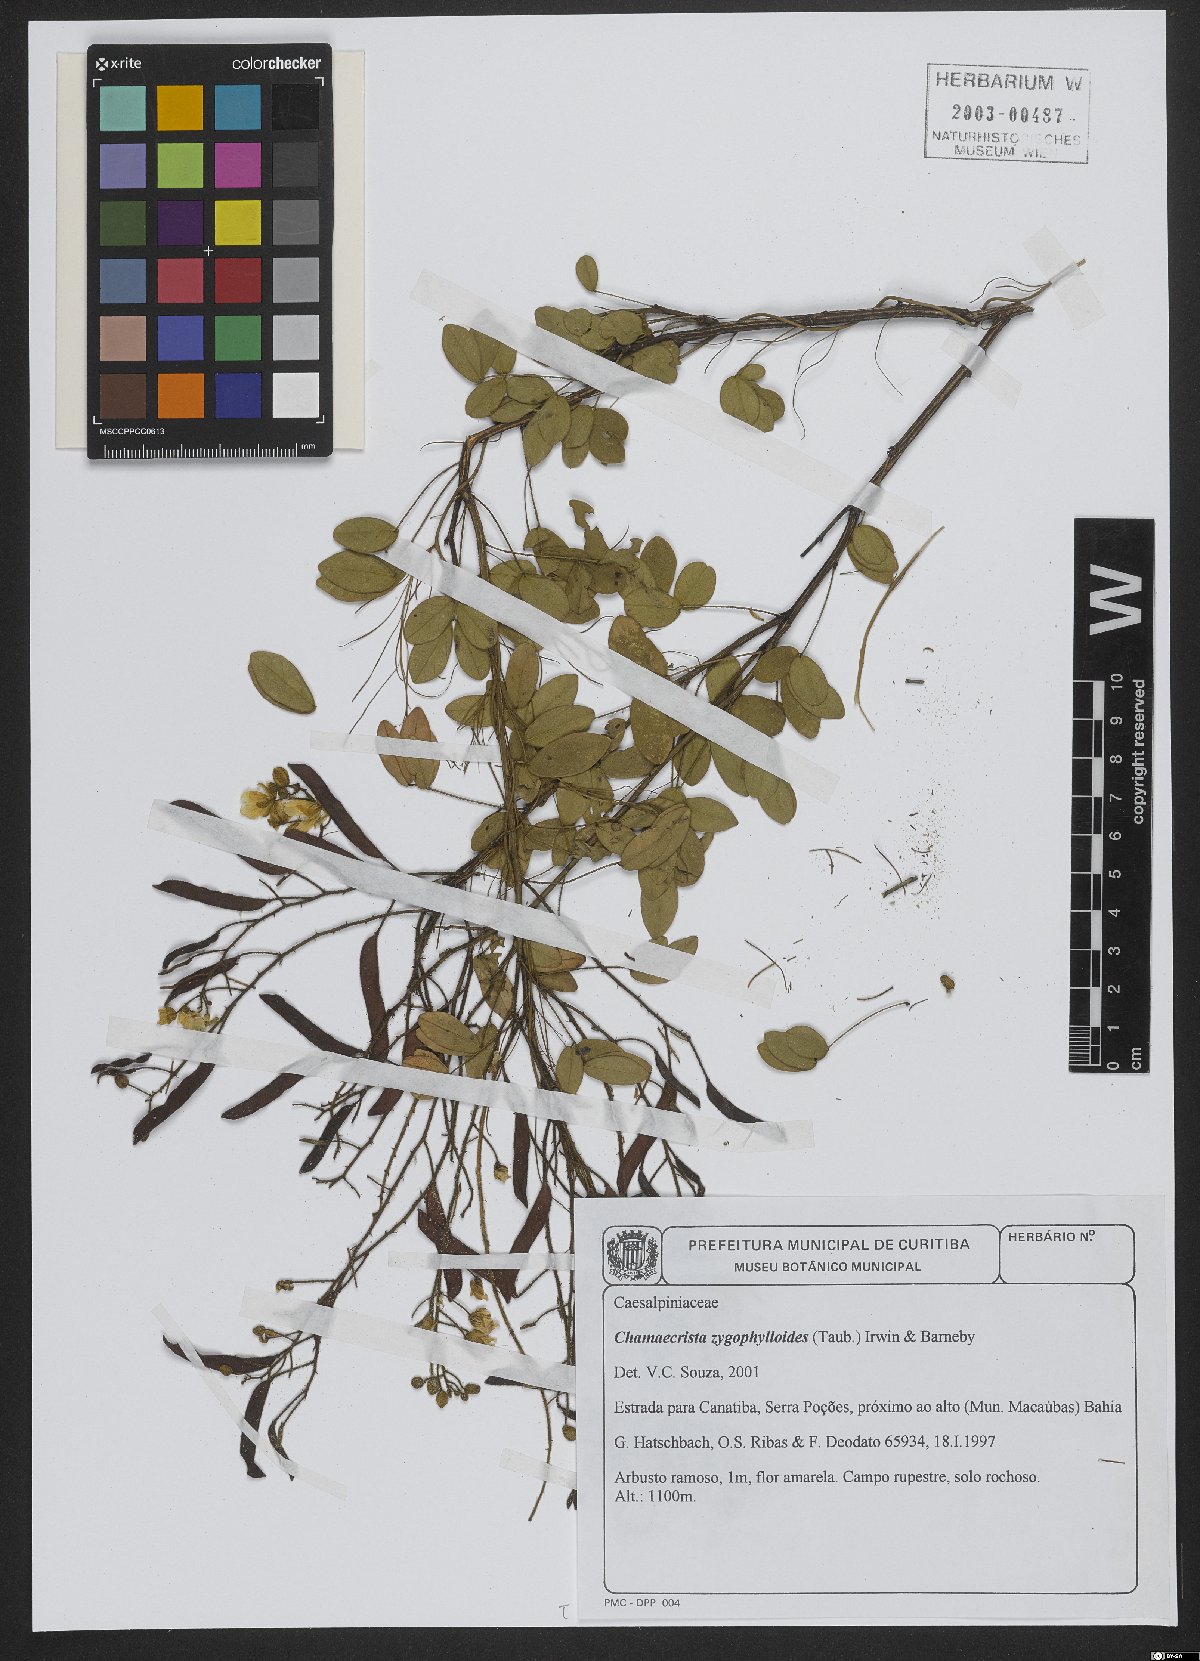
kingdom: Plantae
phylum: Tracheophyta
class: Magnoliopsida
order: Fabales
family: Fabaceae
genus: Chamaecrista
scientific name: Chamaecrista zygophylloides
